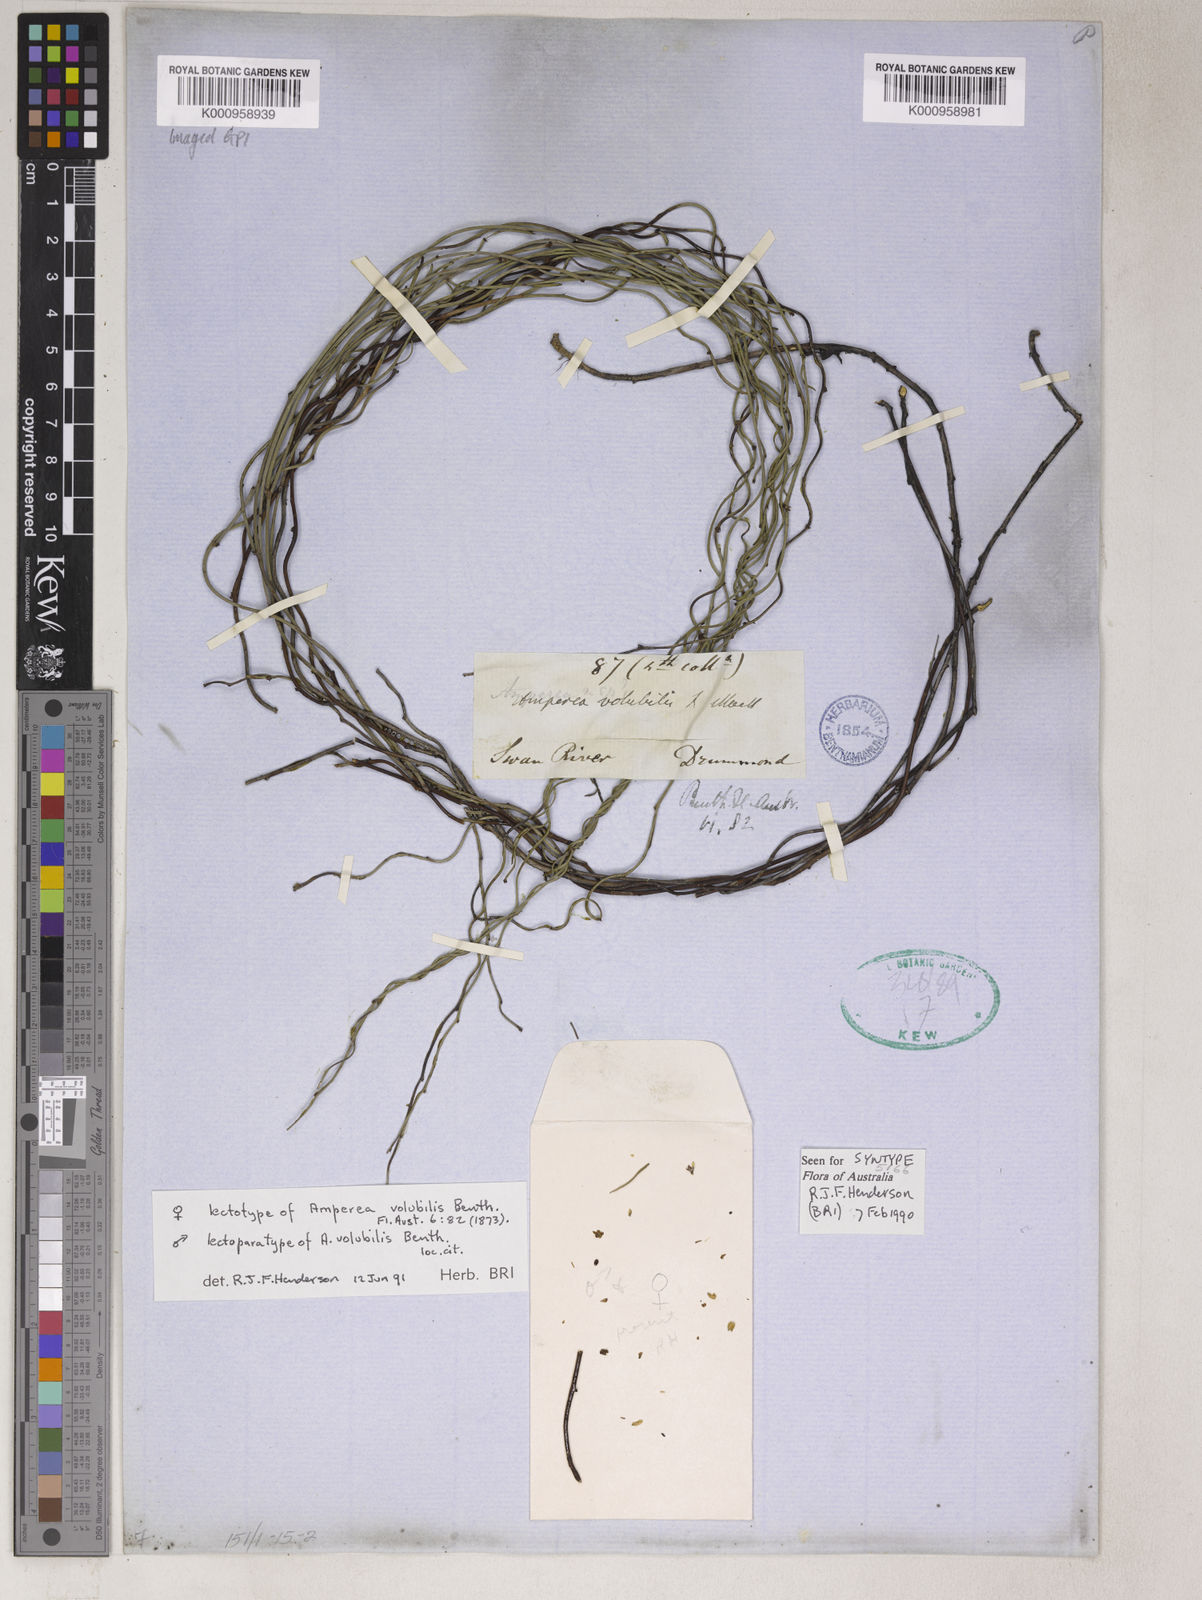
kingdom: Plantae
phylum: Tracheophyta
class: Magnoliopsida
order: Malpighiales
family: Euphorbiaceae
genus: Amperea
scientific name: Amperea volubilis
